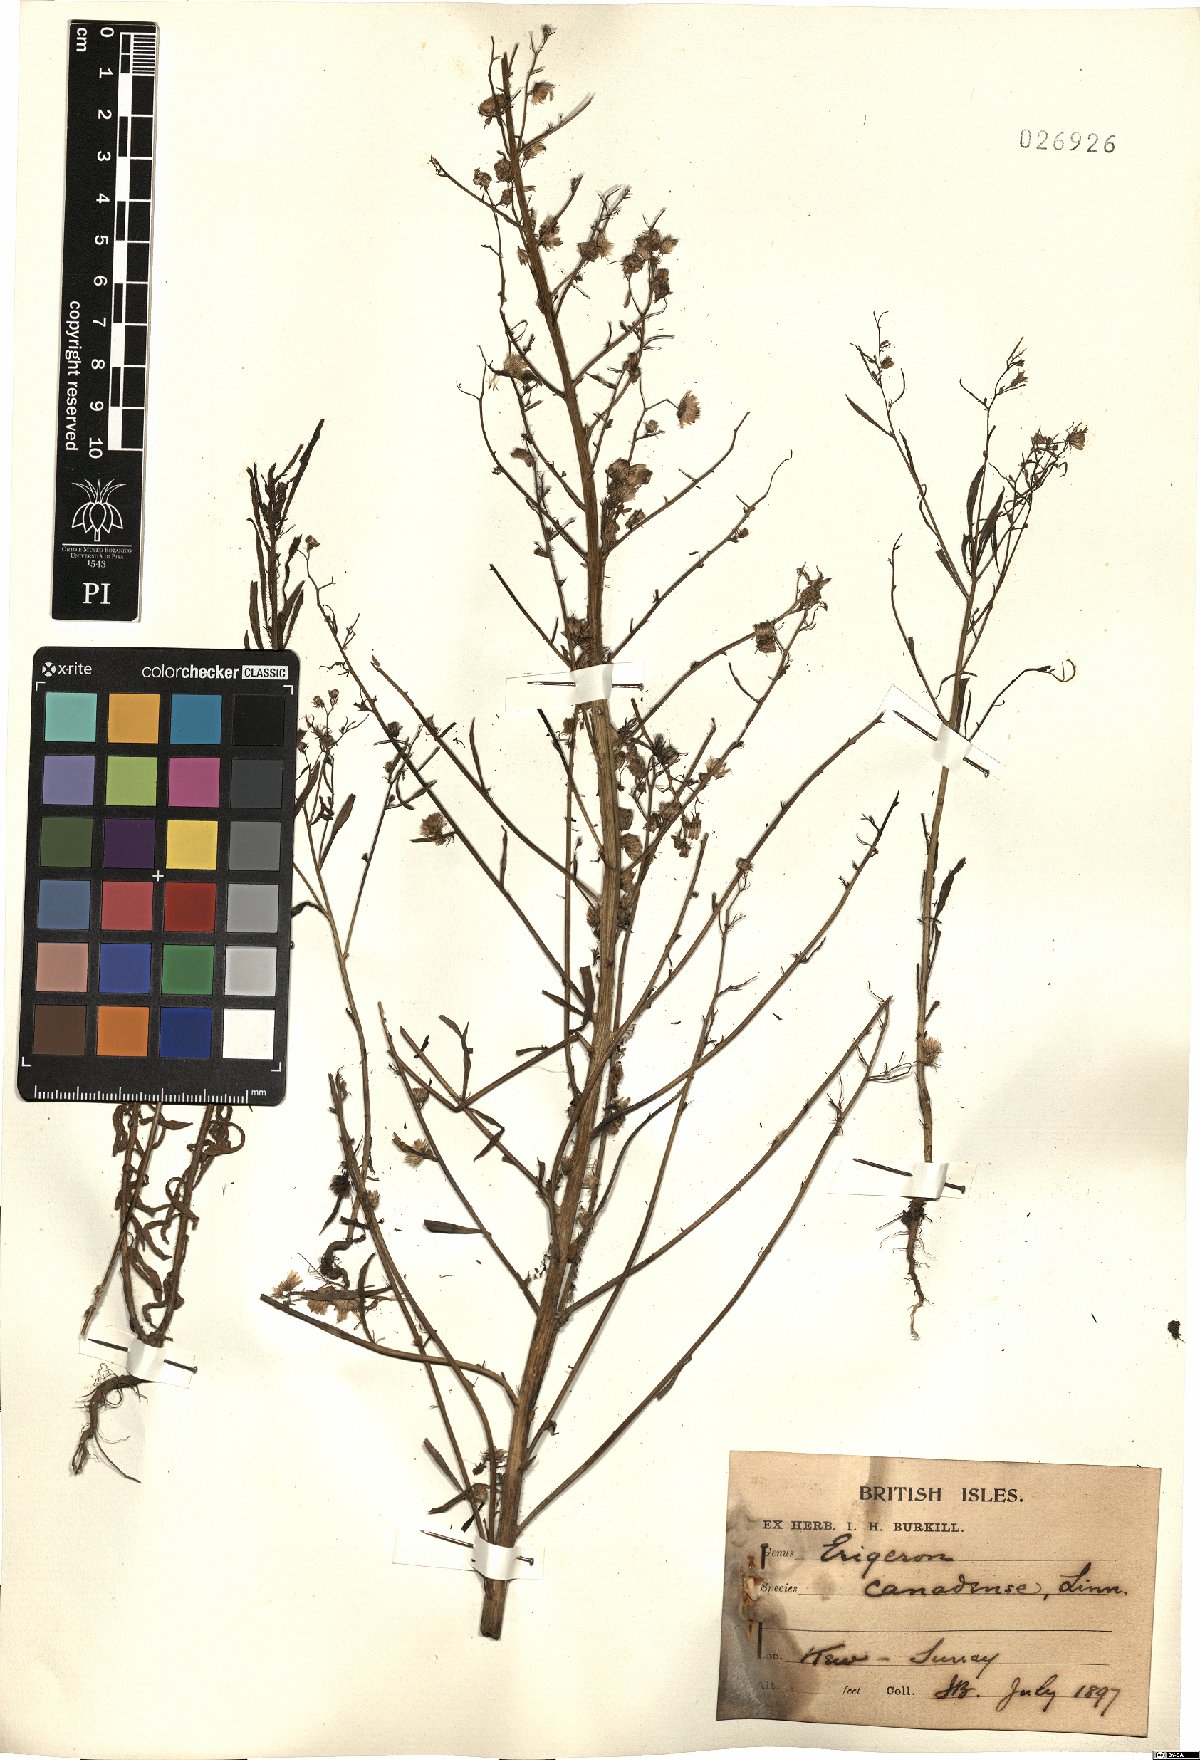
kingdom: Plantae
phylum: Tracheophyta
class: Magnoliopsida
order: Asterales
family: Asteraceae
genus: Erigeron
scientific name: Erigeron canadensis
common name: Canadian fleabane
